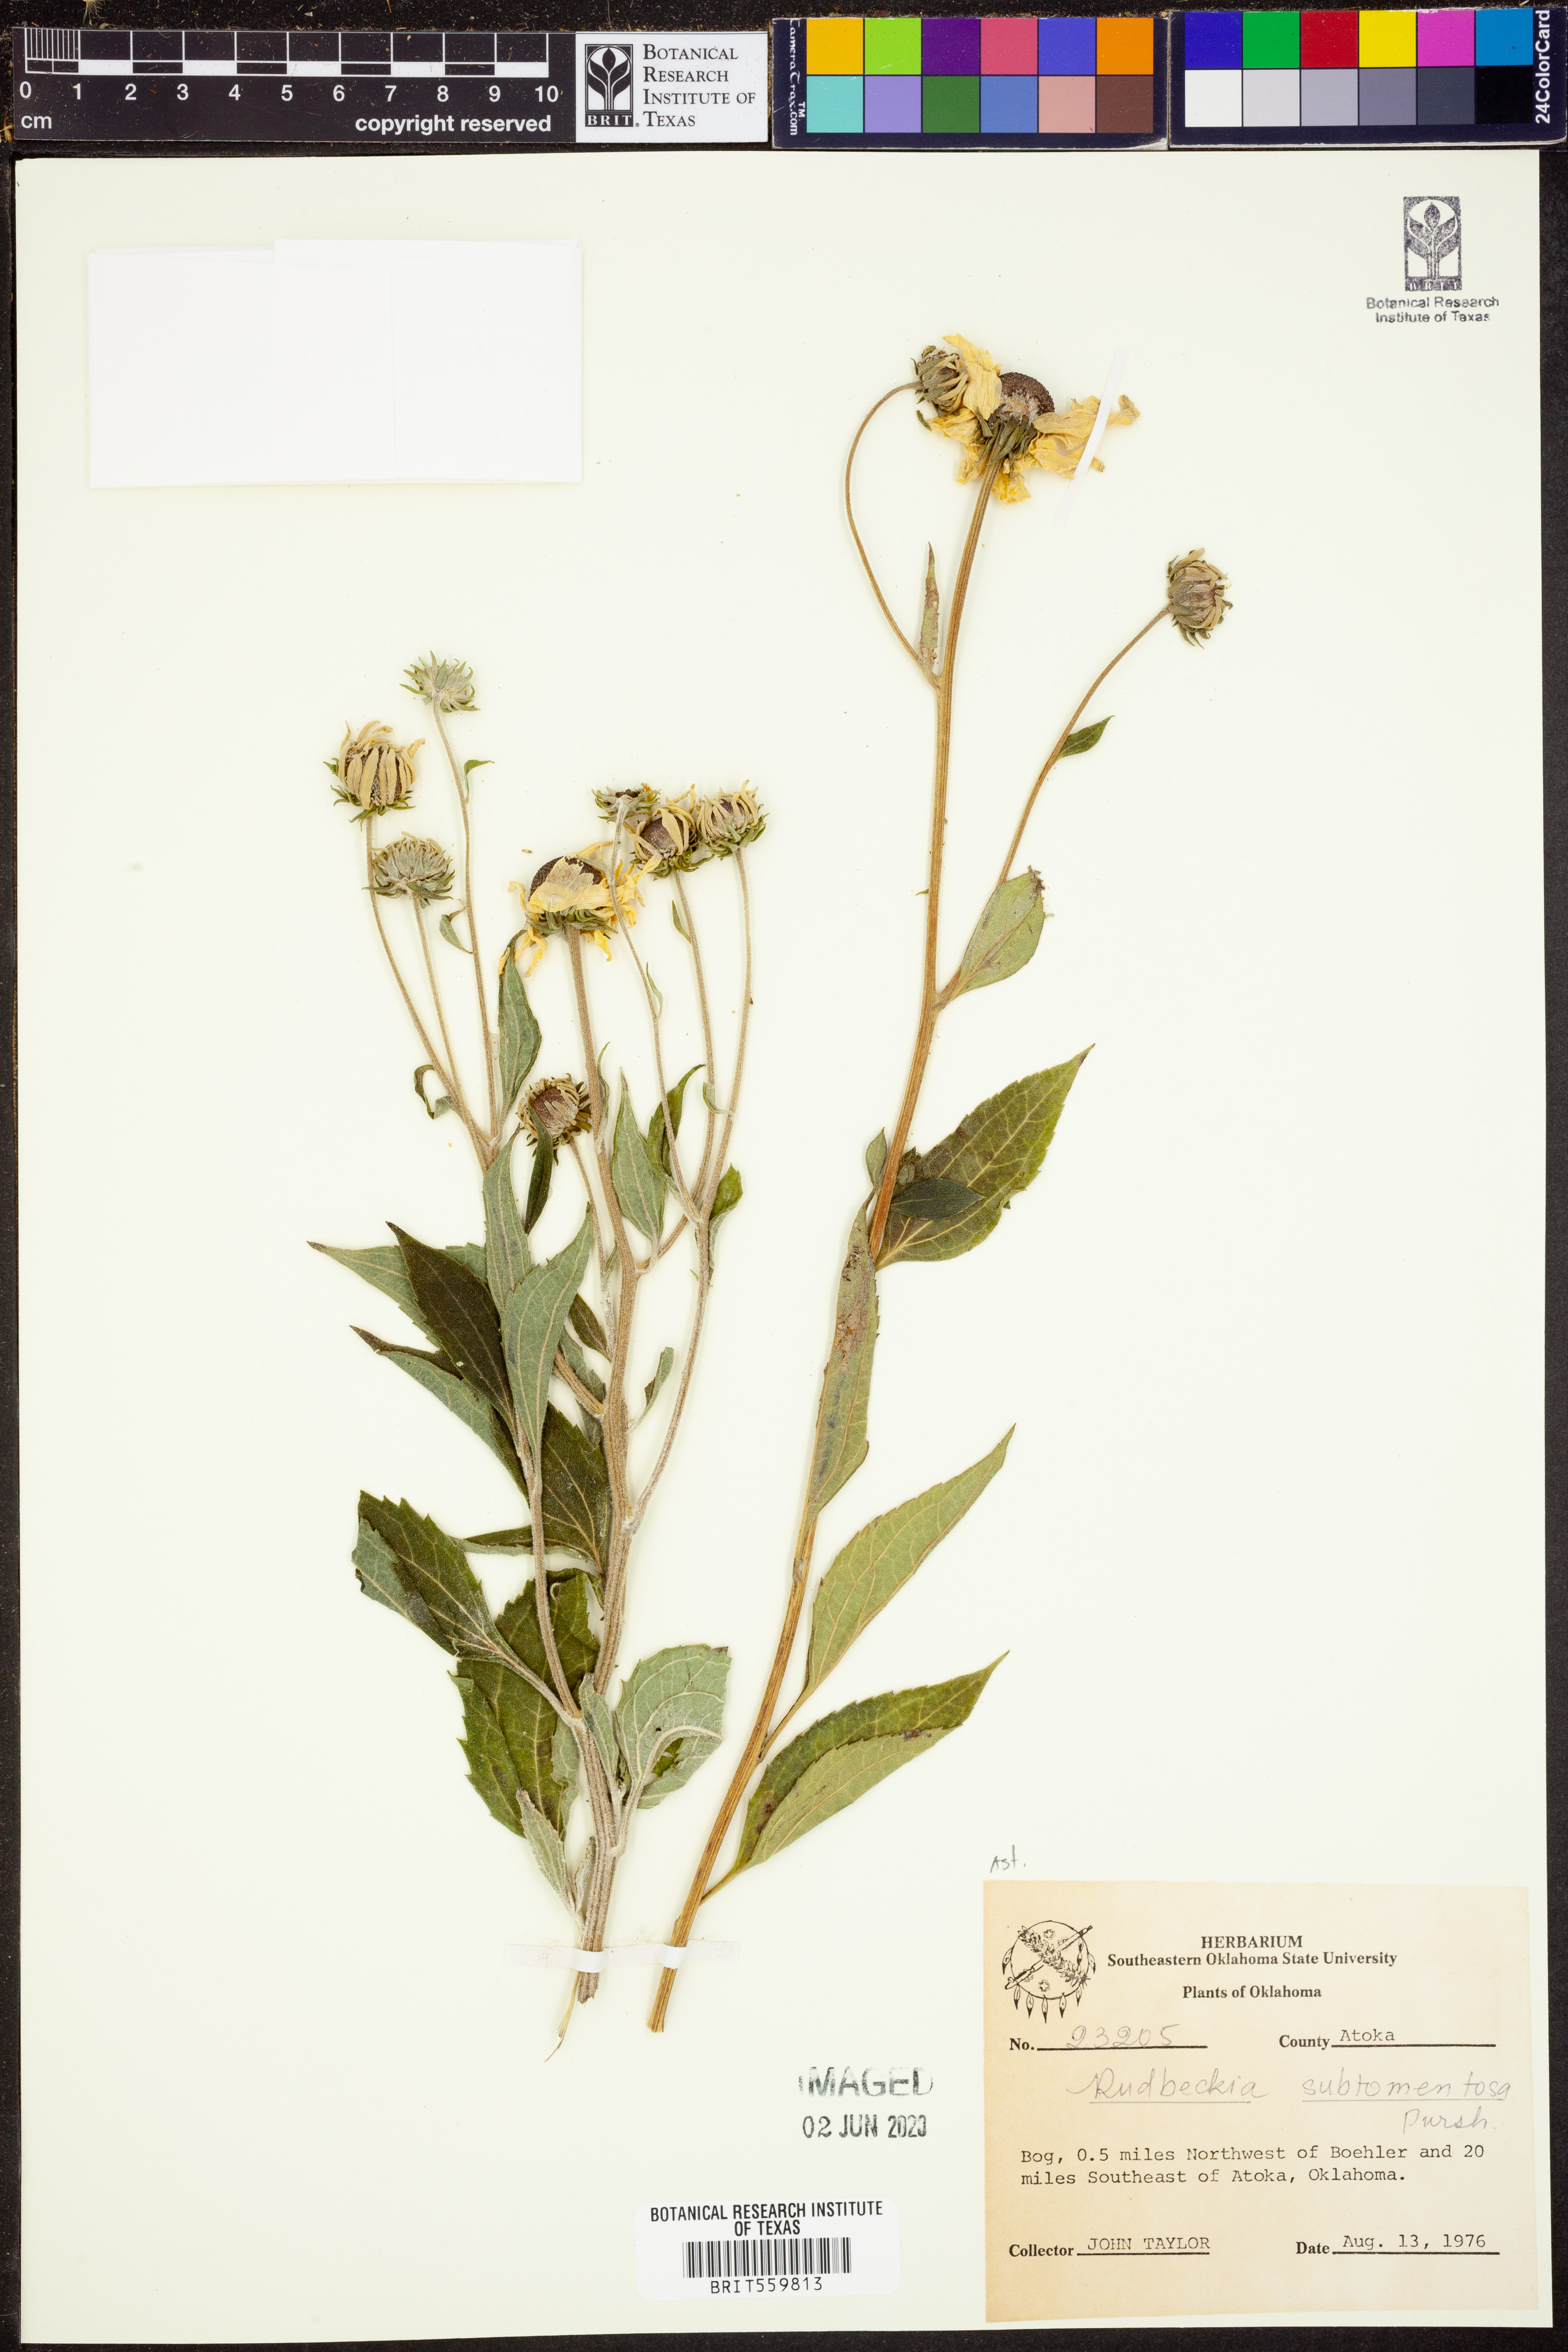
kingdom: Plantae
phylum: Tracheophyta
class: Magnoliopsida
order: Asterales
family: Asteraceae
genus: Rudbeckia
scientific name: Rudbeckia subtomentosa
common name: Sweet coneflower
